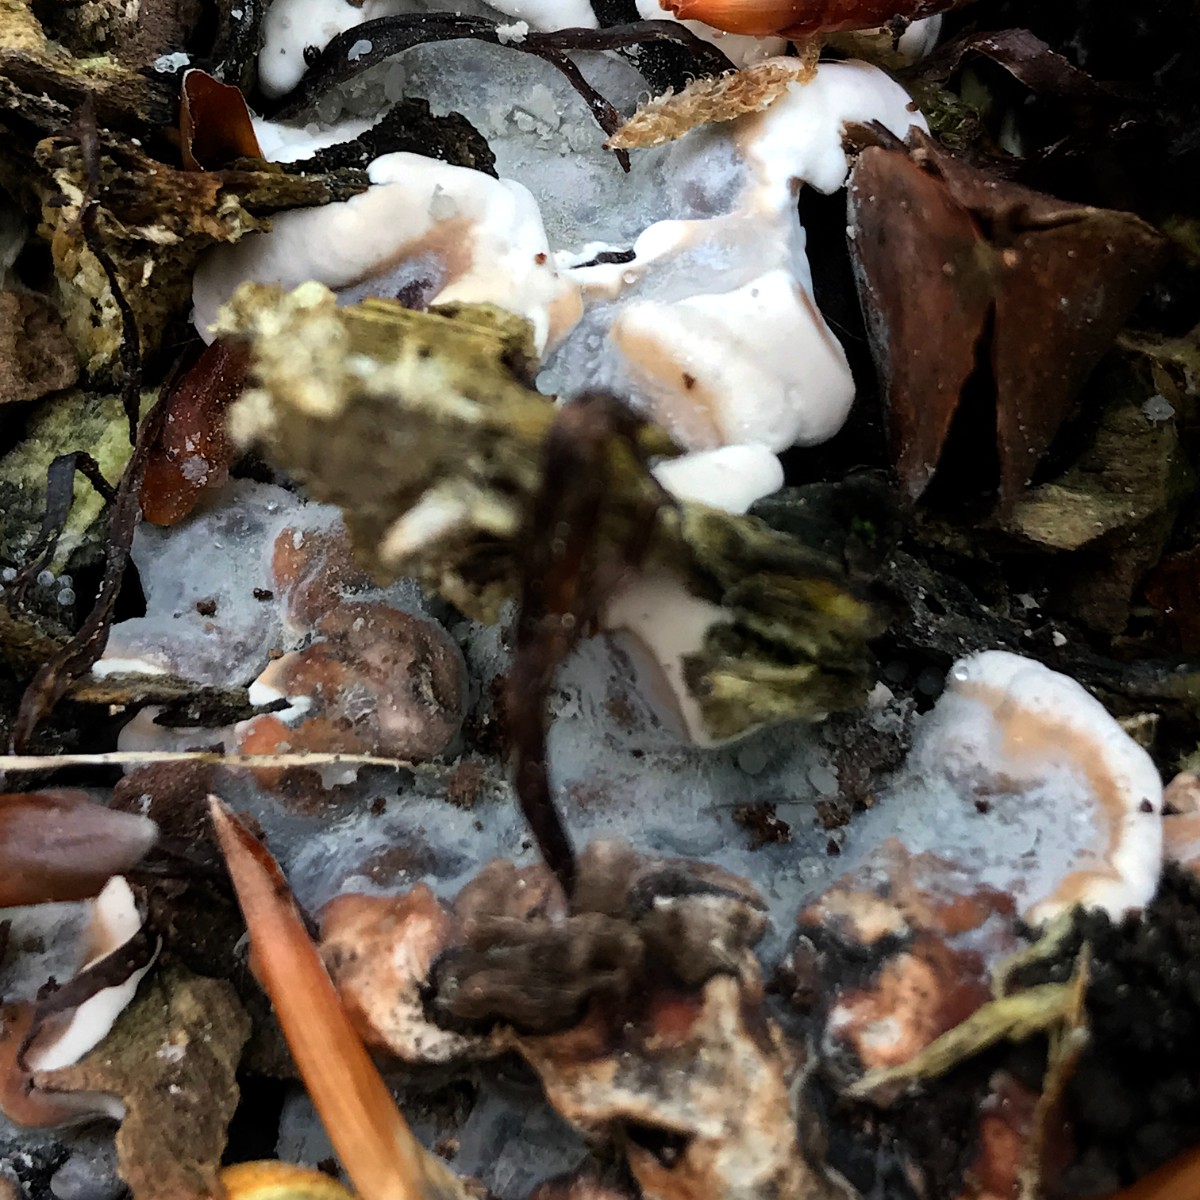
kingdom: Fungi
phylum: Ascomycota
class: Sordariomycetes
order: Xylariales
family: Xylariaceae
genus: Kretzschmaria
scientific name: Kretzschmaria deusta
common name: stor kulsvamp
